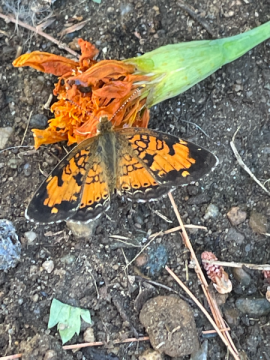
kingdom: Animalia
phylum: Arthropoda
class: Insecta
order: Lepidoptera
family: Nymphalidae
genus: Phyciodes
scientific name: Phyciodes tharos
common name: Northern Crescent
